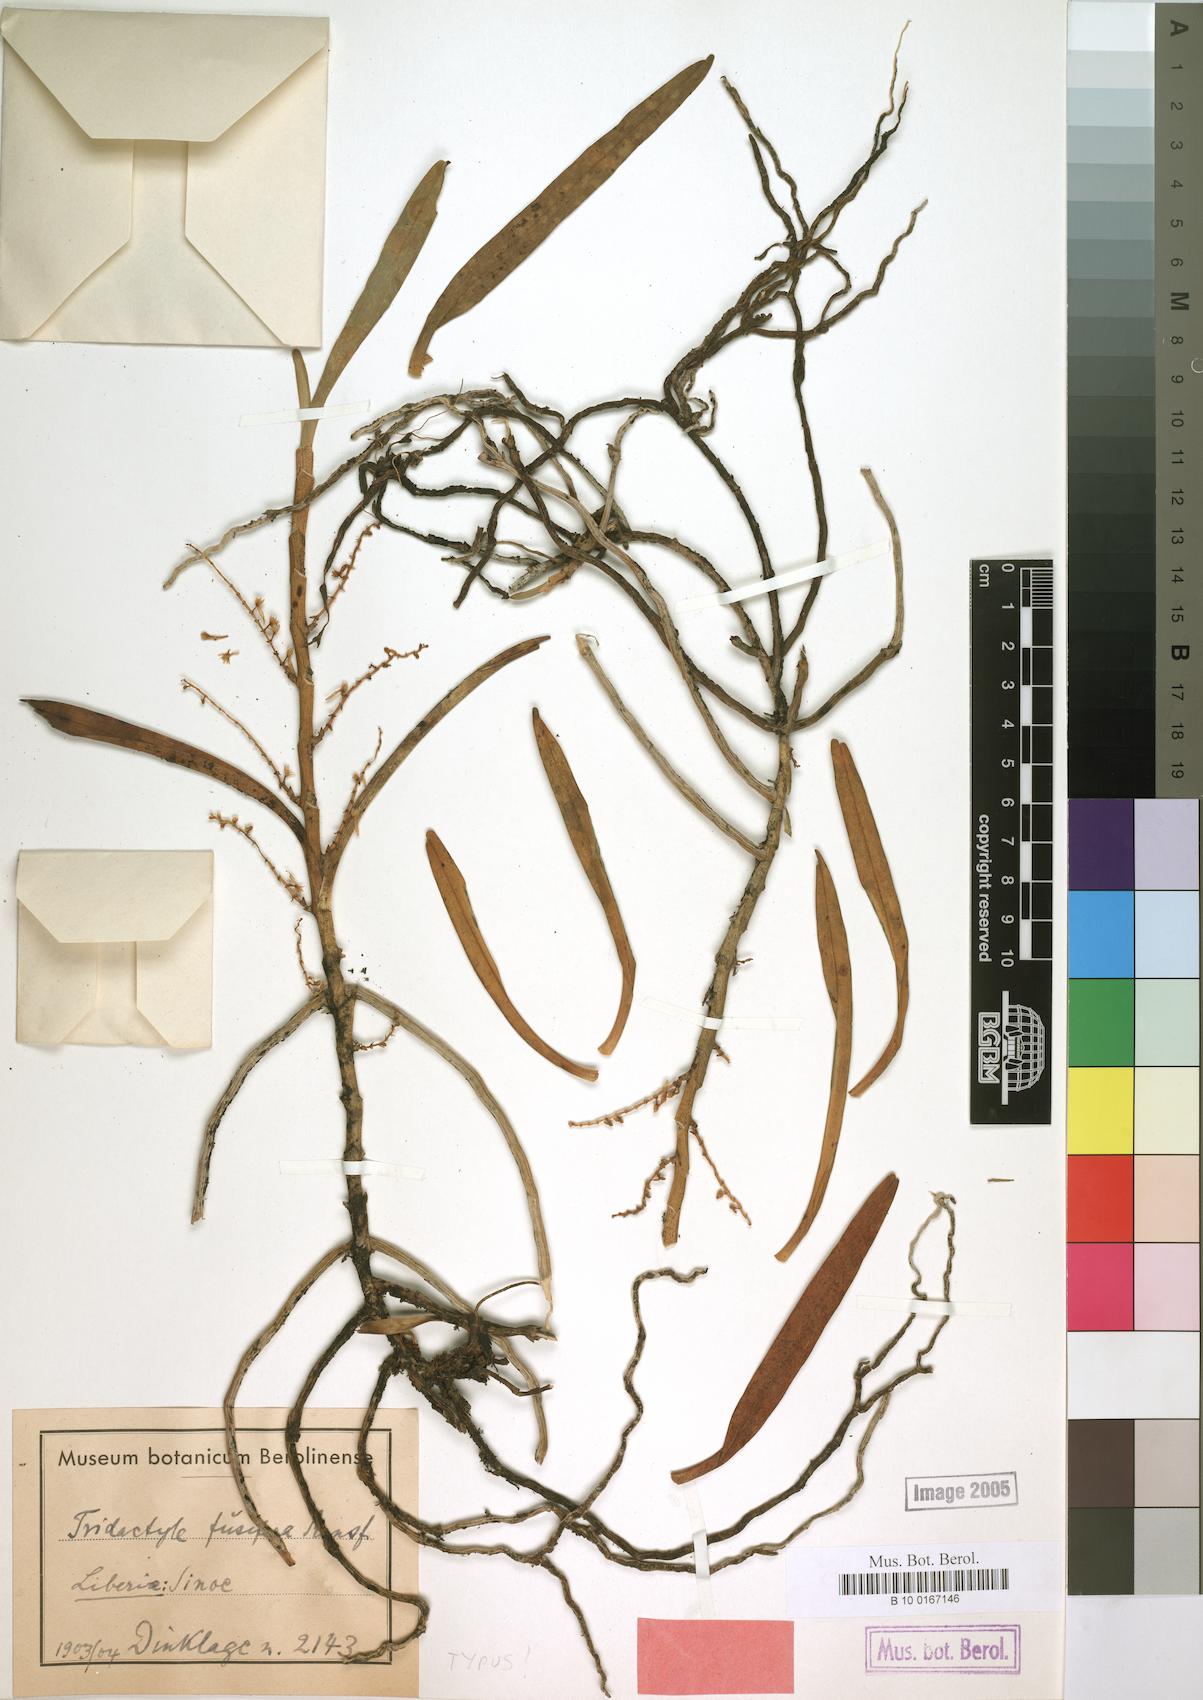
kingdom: Plantae
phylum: Tracheophyta
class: Liliopsida
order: Asparagales
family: Orchidaceae
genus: Tridactyle
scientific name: Tridactyle fusifera
